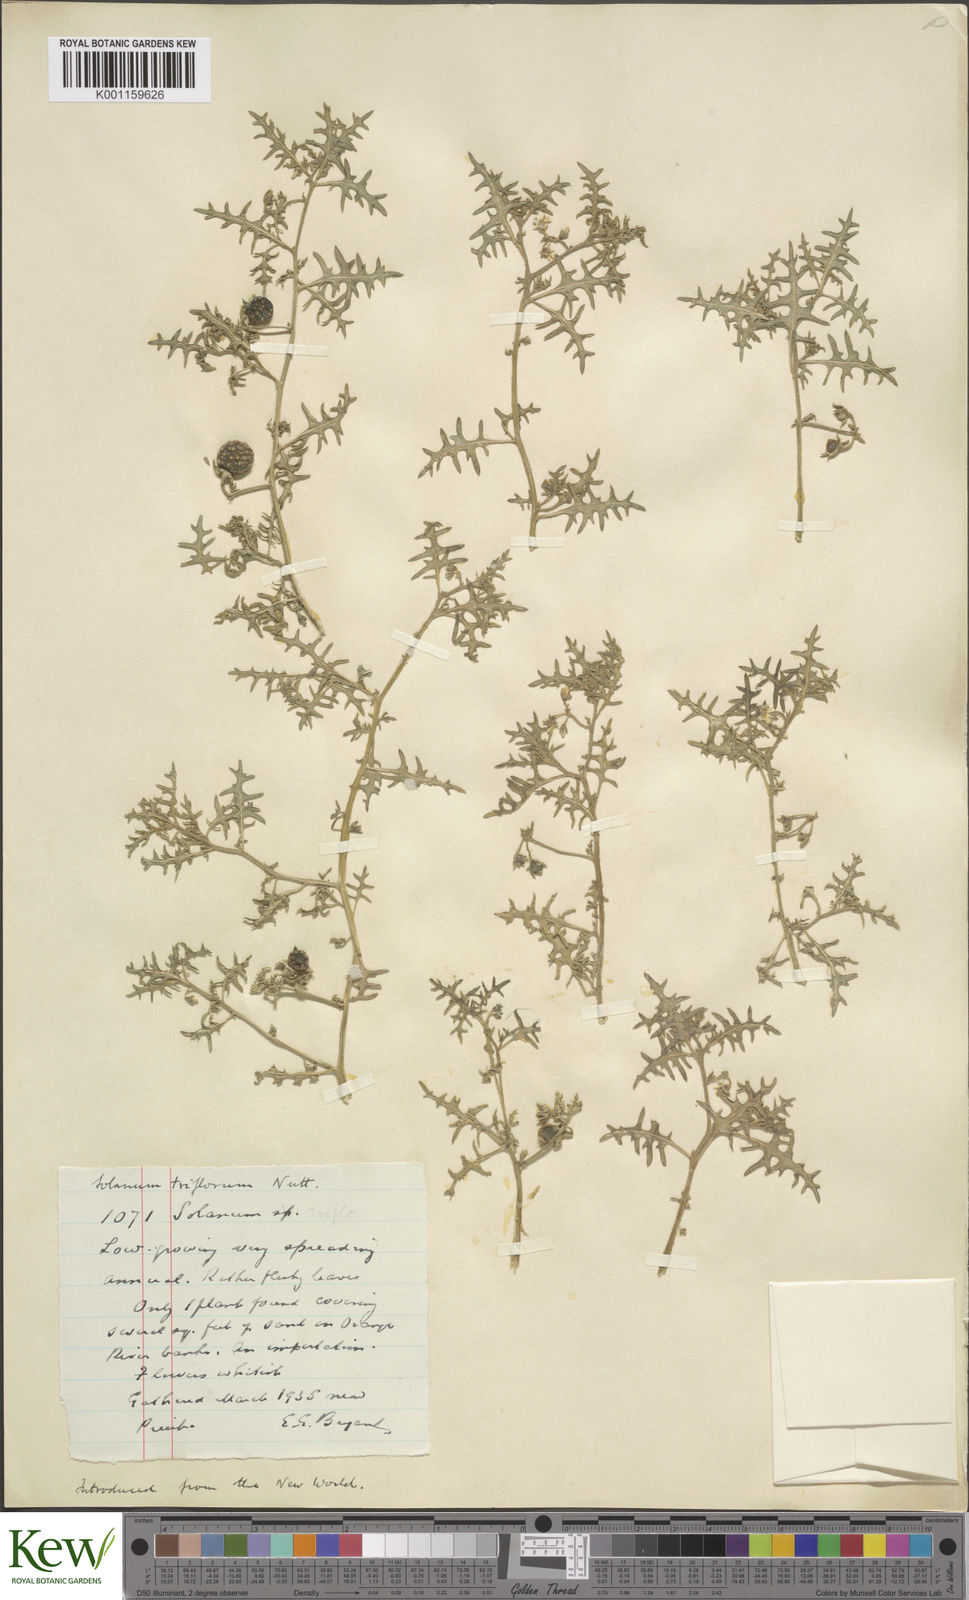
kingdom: Plantae
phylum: Tracheophyta
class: Magnoliopsida
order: Solanales
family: Solanaceae
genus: Solanum
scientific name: Solanum triflorum
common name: Small nightshade
